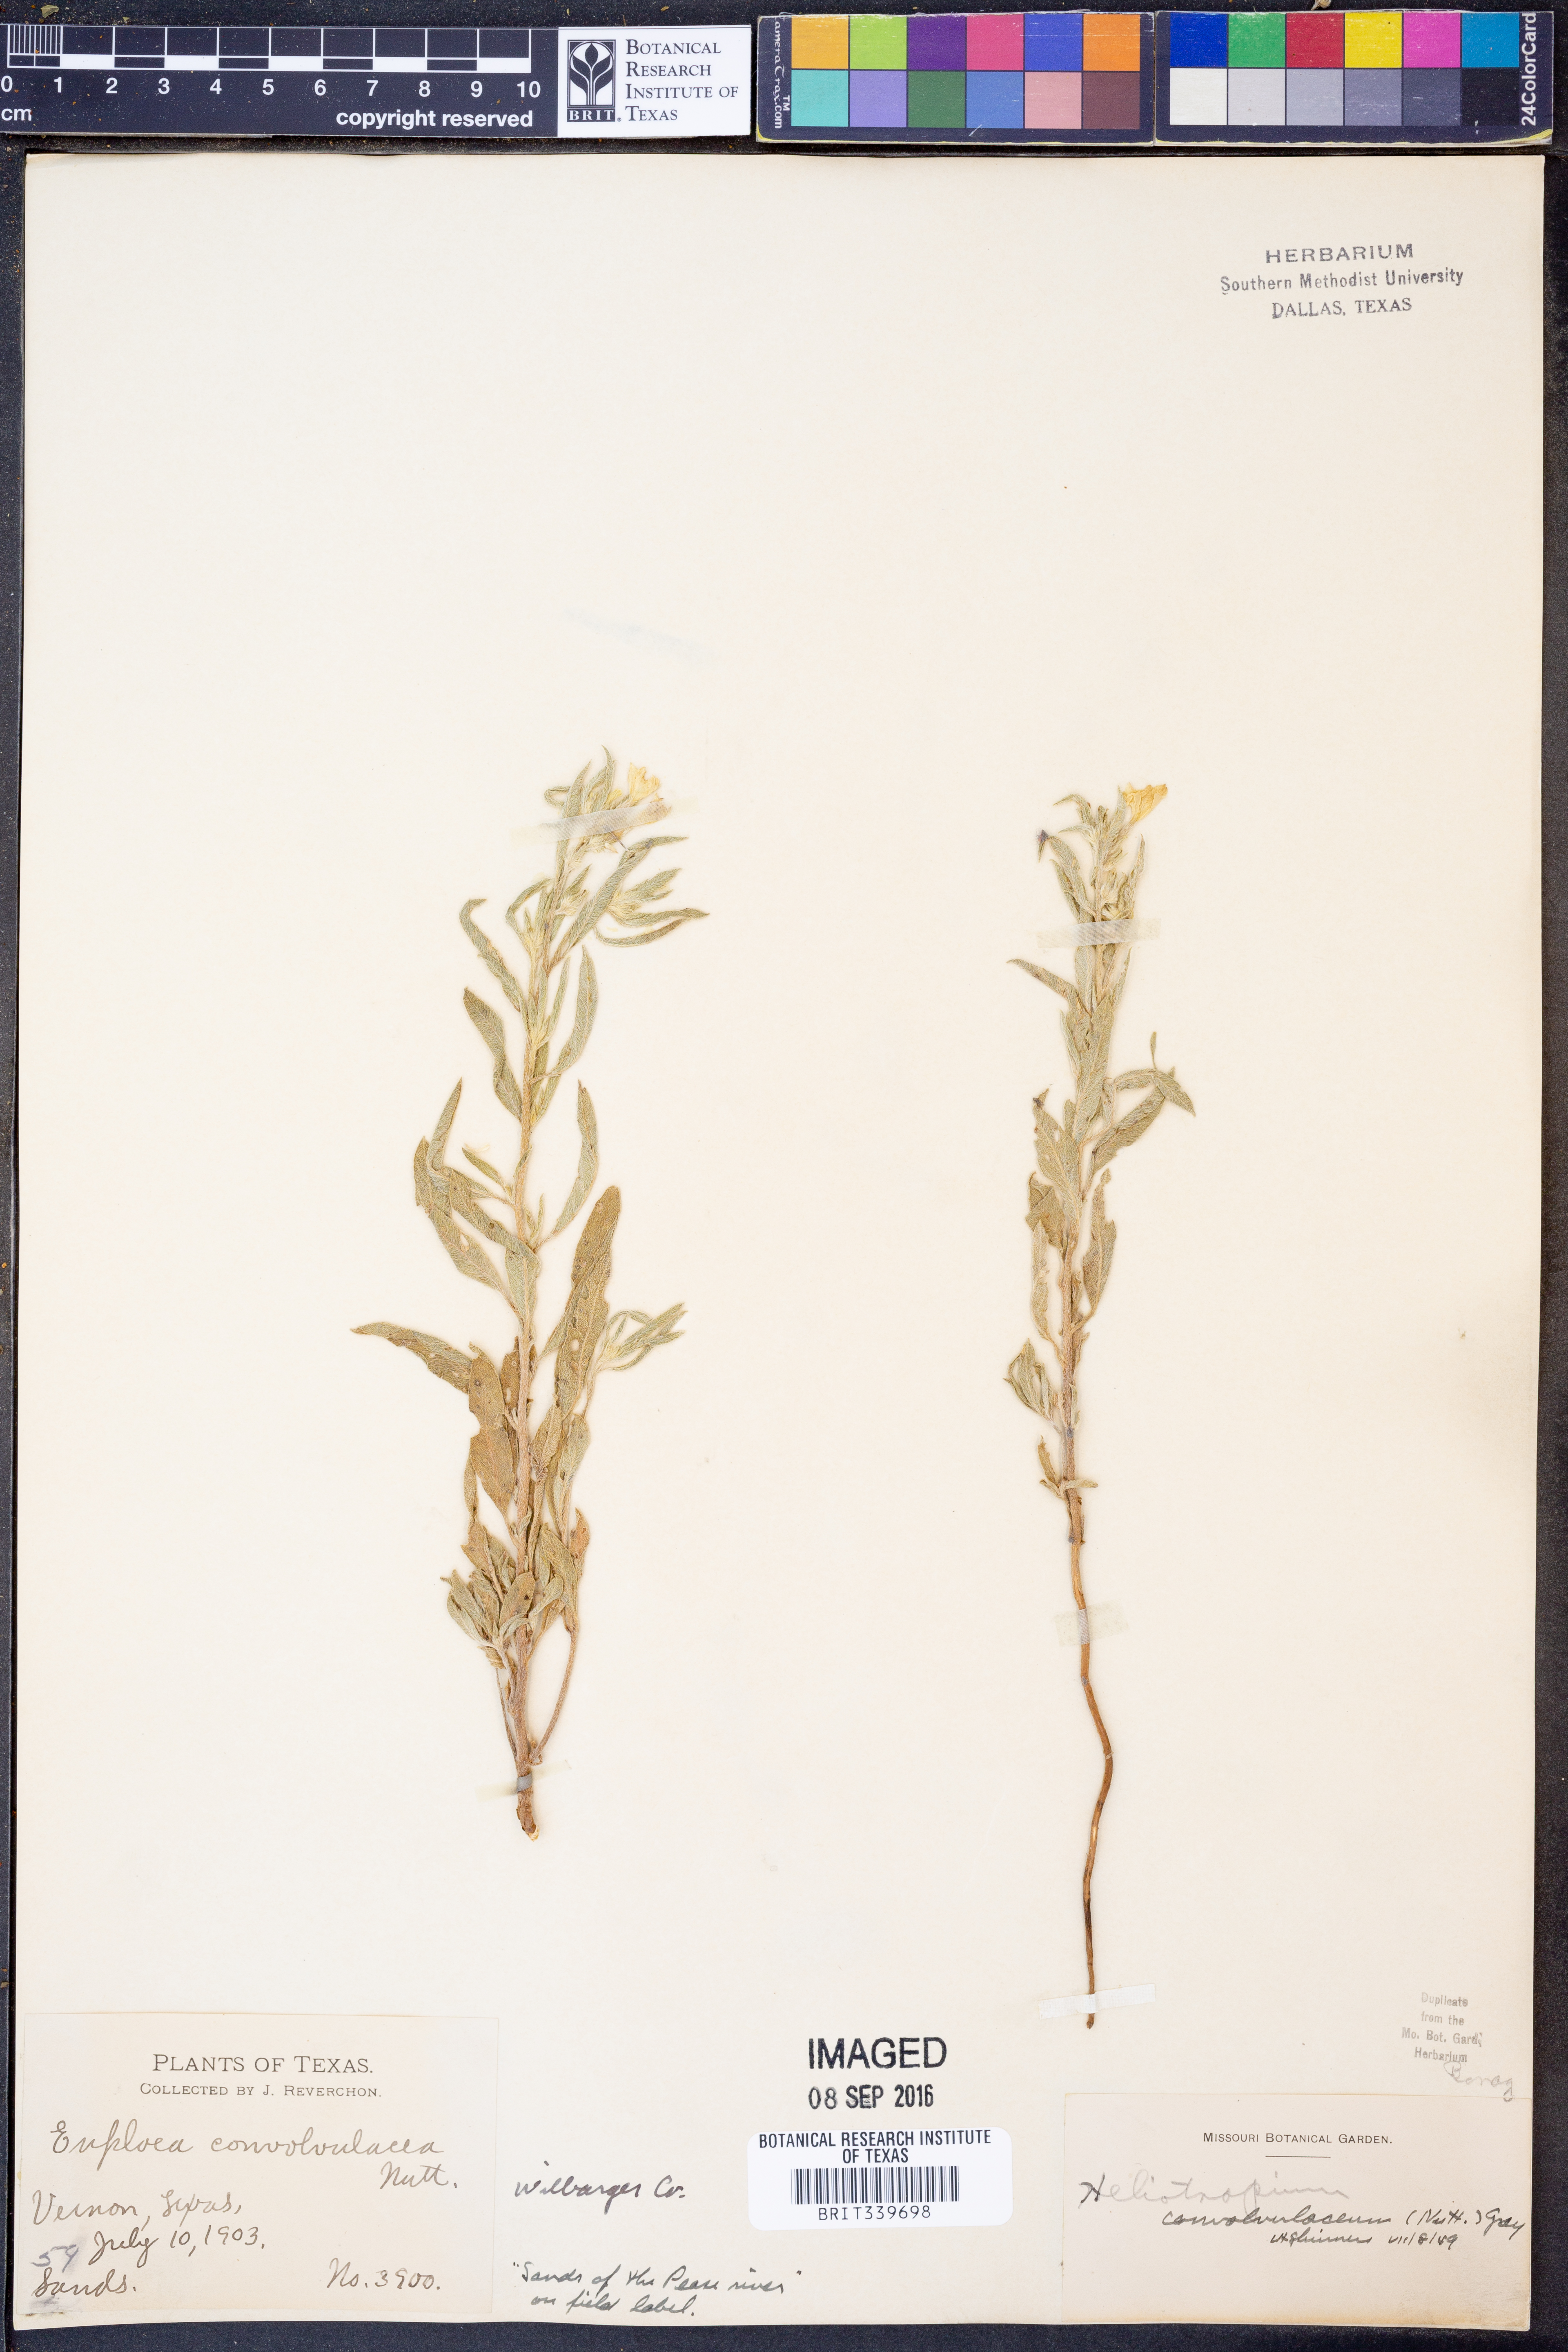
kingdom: Plantae
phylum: Tracheophyta
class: Magnoliopsida
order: Boraginales
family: Heliotropiaceae
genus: Euploca
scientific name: Euploca convolvulacea
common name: Bindweed heliotrope
